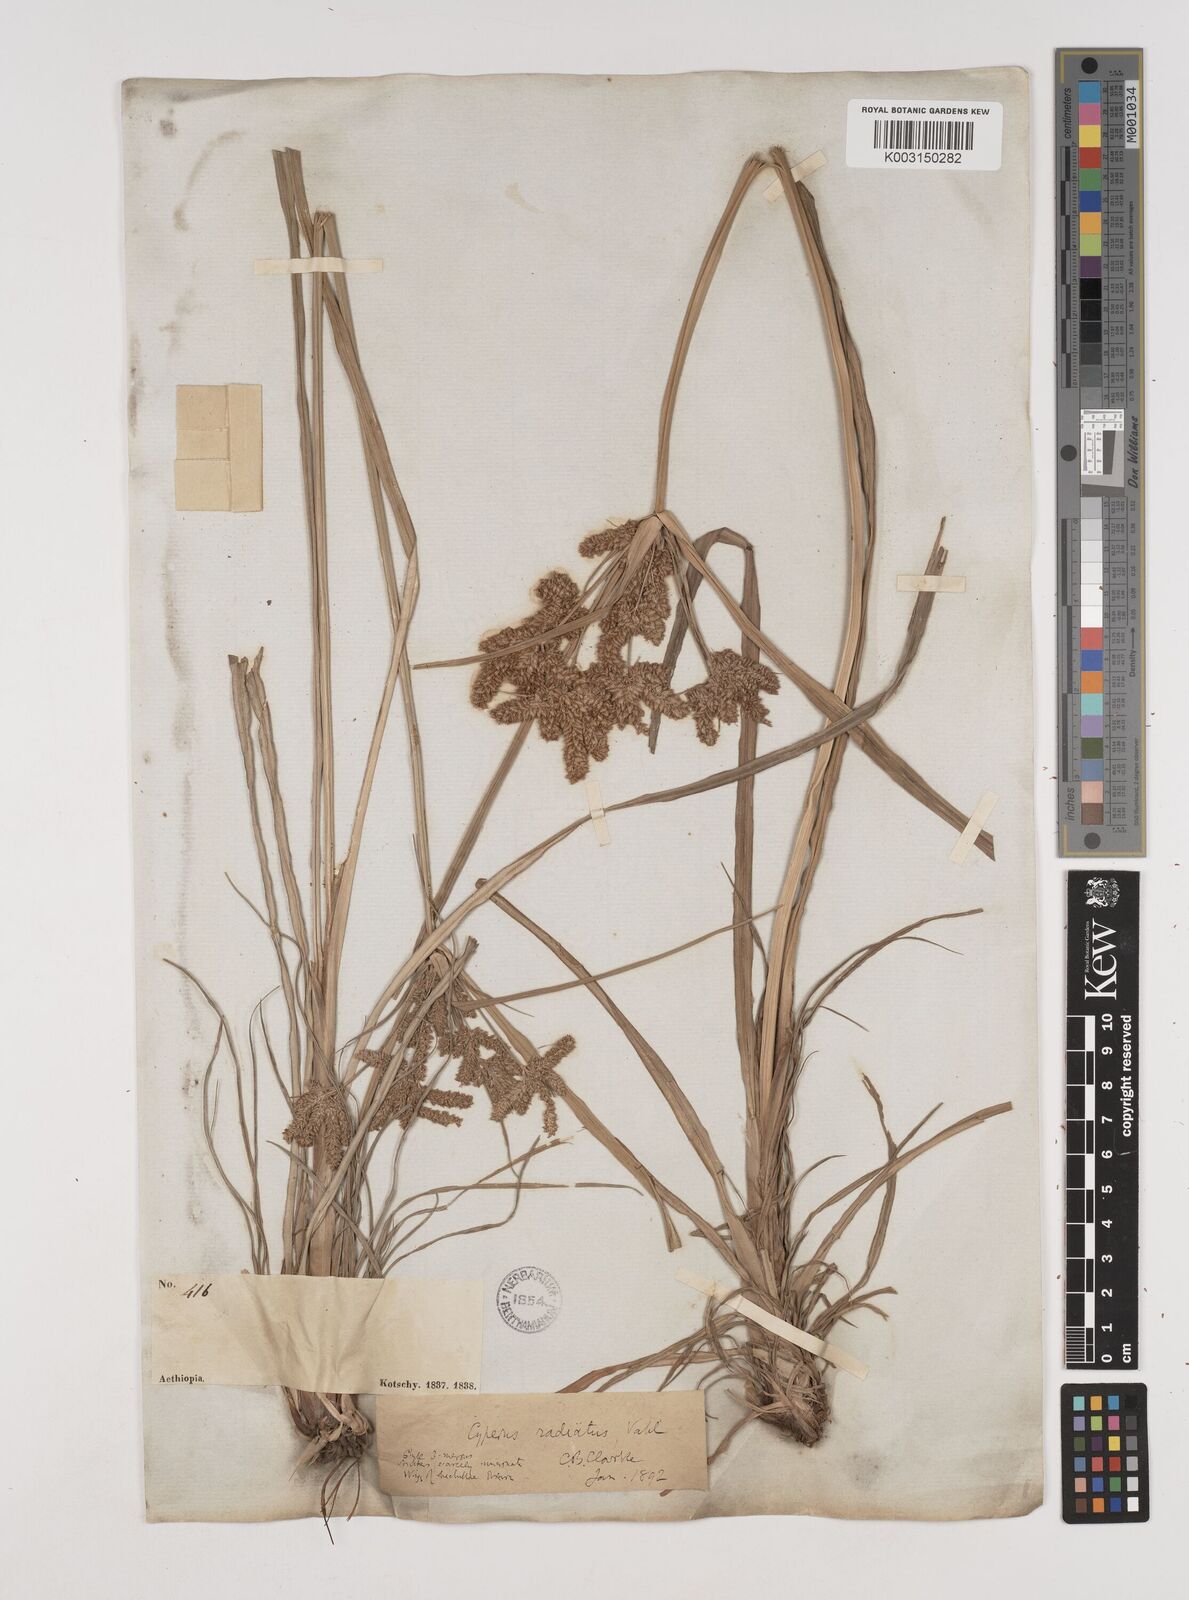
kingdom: Plantae
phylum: Tracheophyta
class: Liliopsida
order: Poales
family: Cyperaceae
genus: Cyperus
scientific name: Cyperus alopecuroides
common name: Foxtail flatsedge
